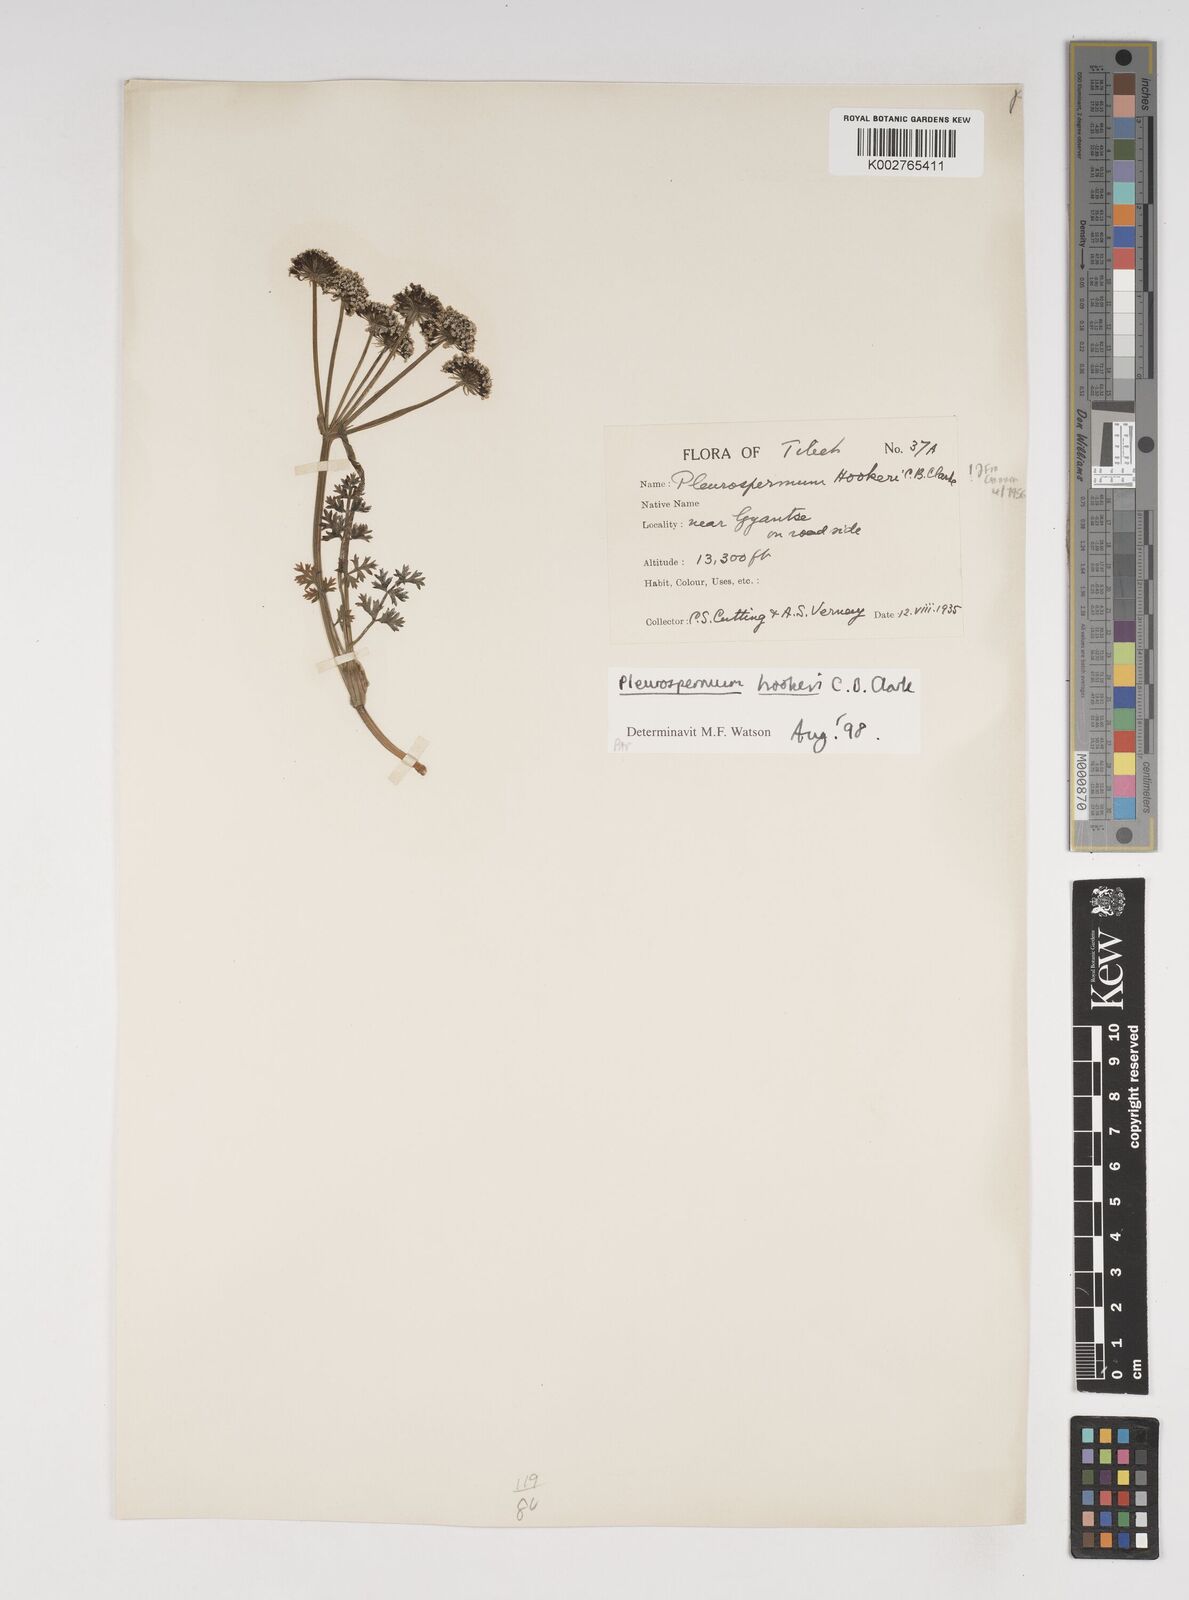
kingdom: Plantae
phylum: Tracheophyta
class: Magnoliopsida
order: Apiales
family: Apiaceae
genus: Pleurospermum
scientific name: Pleurospermum hookeri
